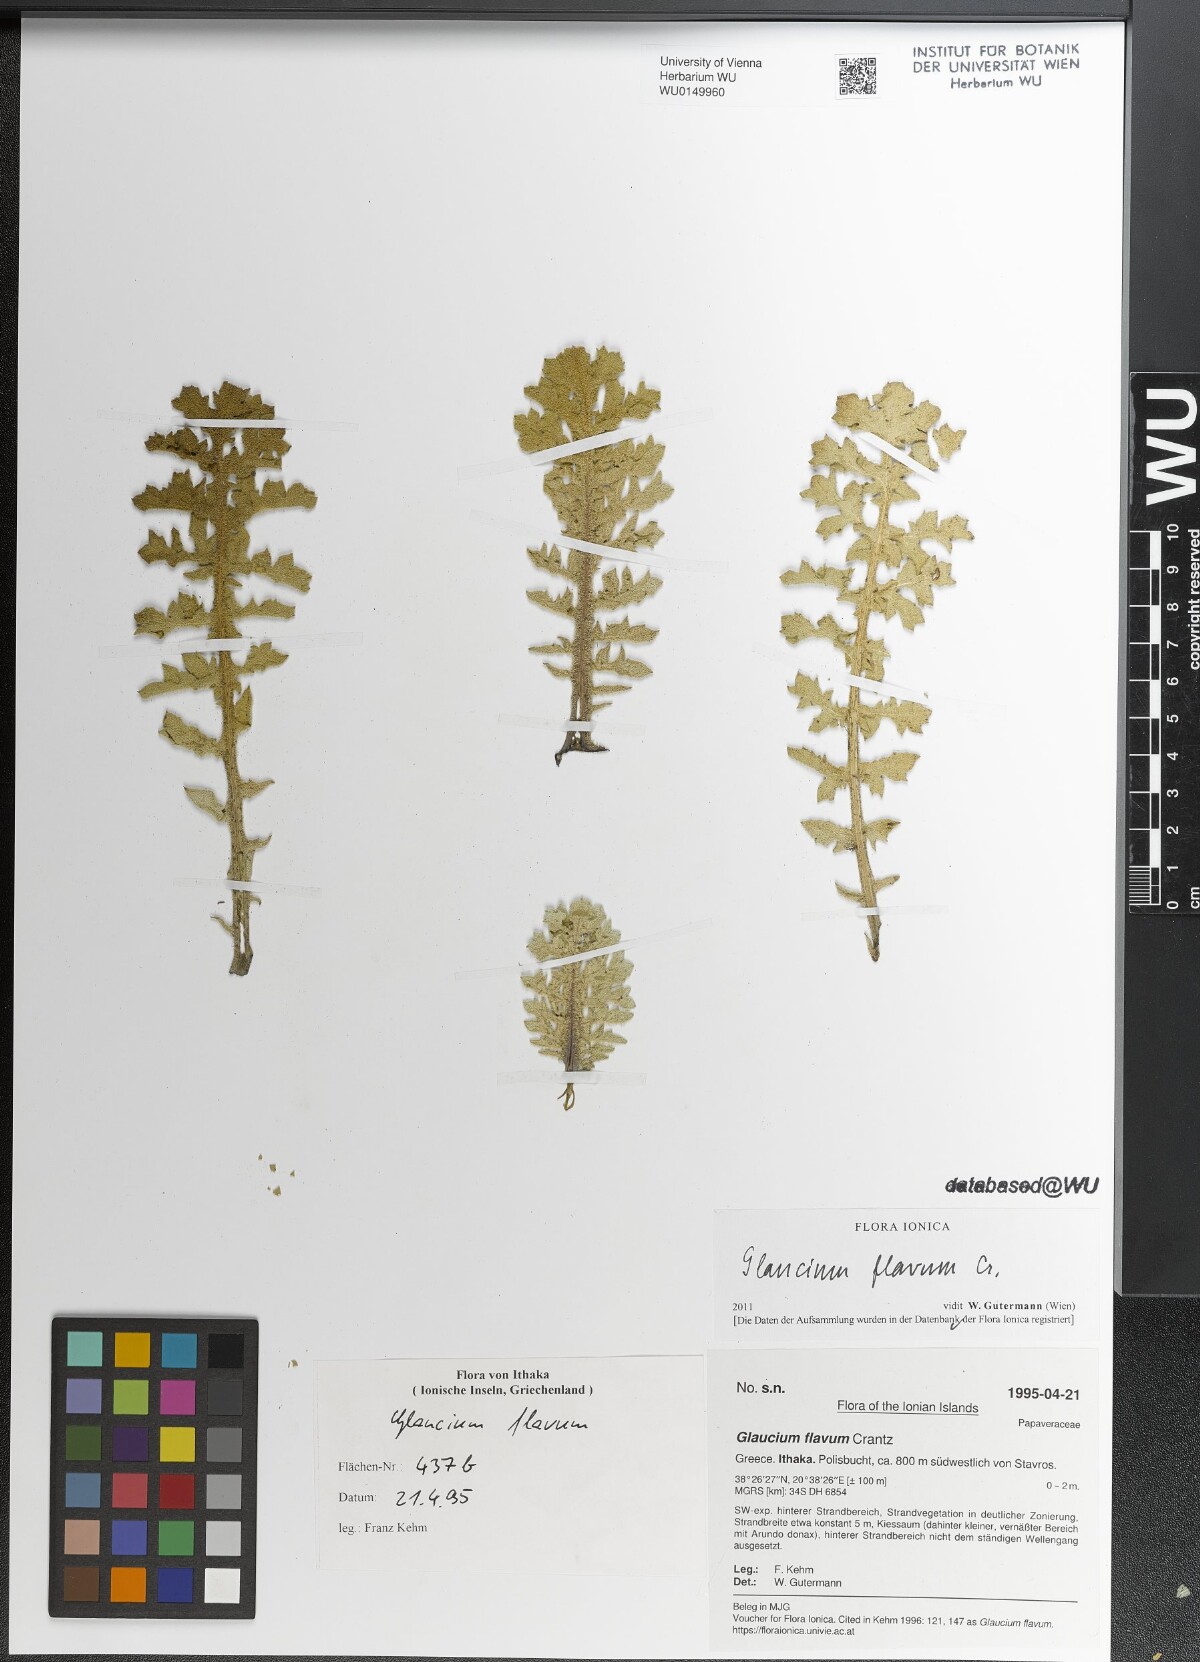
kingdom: Plantae
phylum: Tracheophyta
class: Magnoliopsida
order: Ranunculales
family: Papaveraceae
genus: Glaucium
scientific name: Glaucium flavum
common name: Yellow horned-poppy
